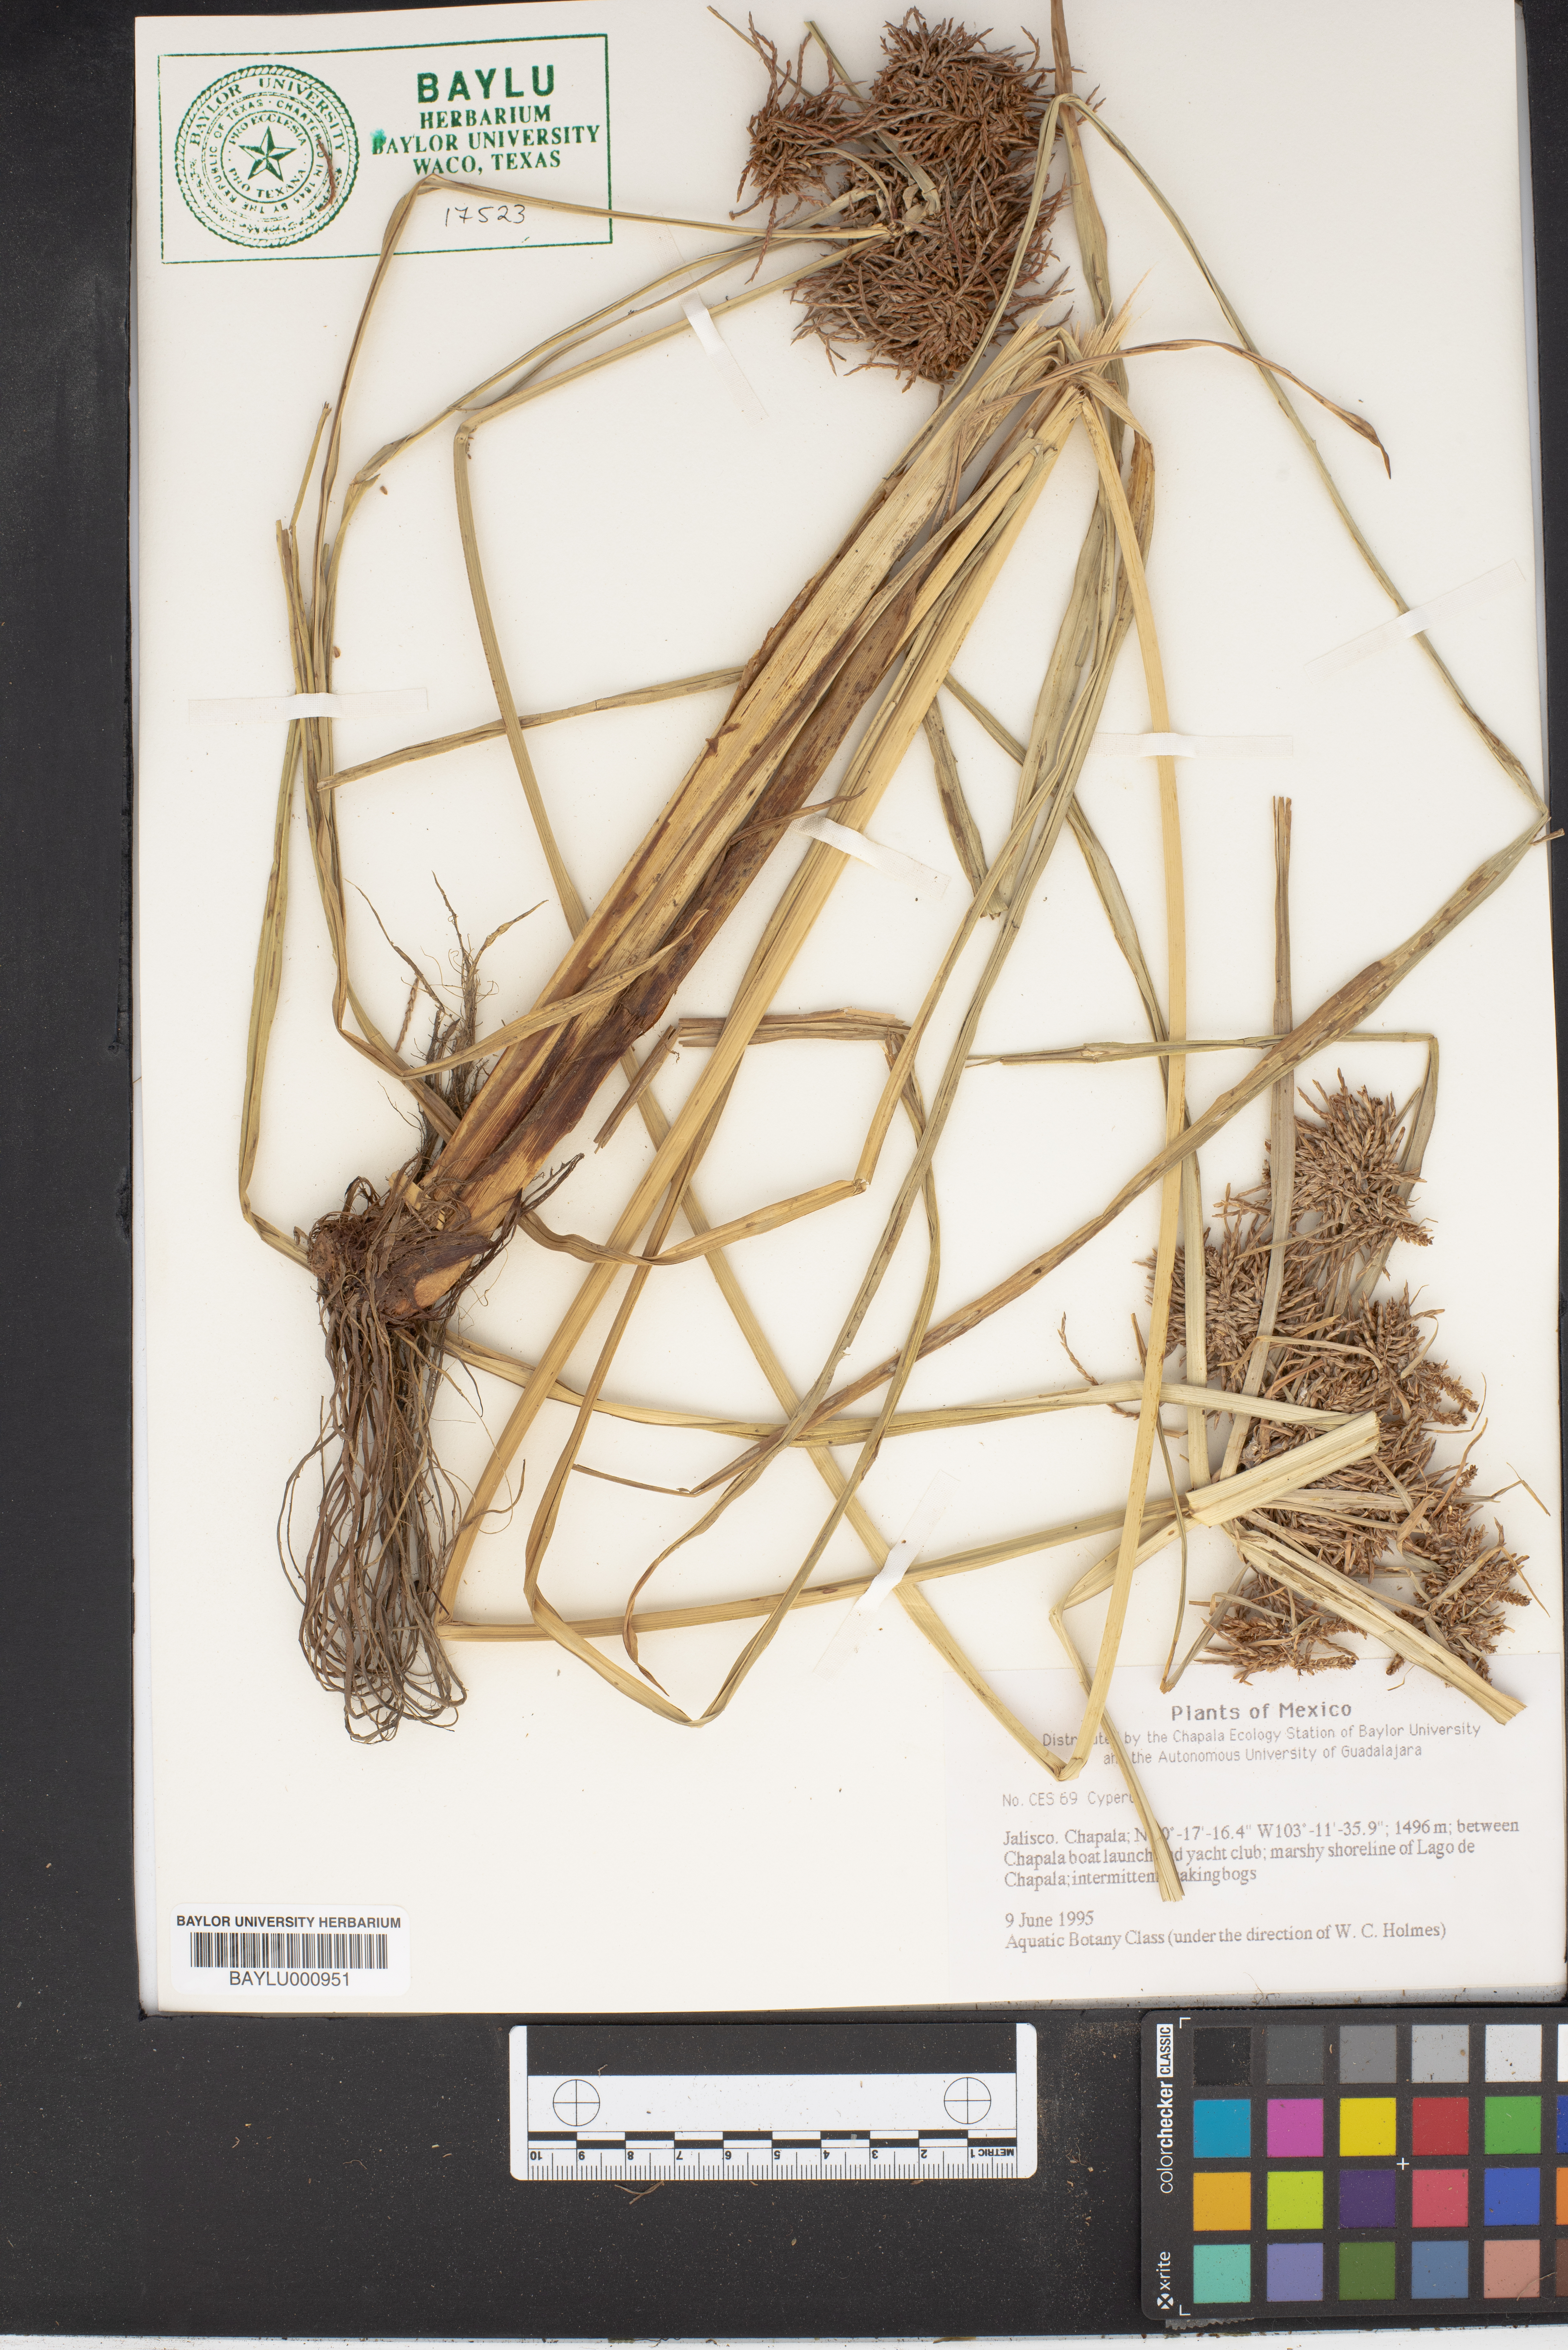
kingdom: Plantae
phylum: Tracheophyta
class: Liliopsida
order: Poales
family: Cyperaceae
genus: Cyperus
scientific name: Cyperus
